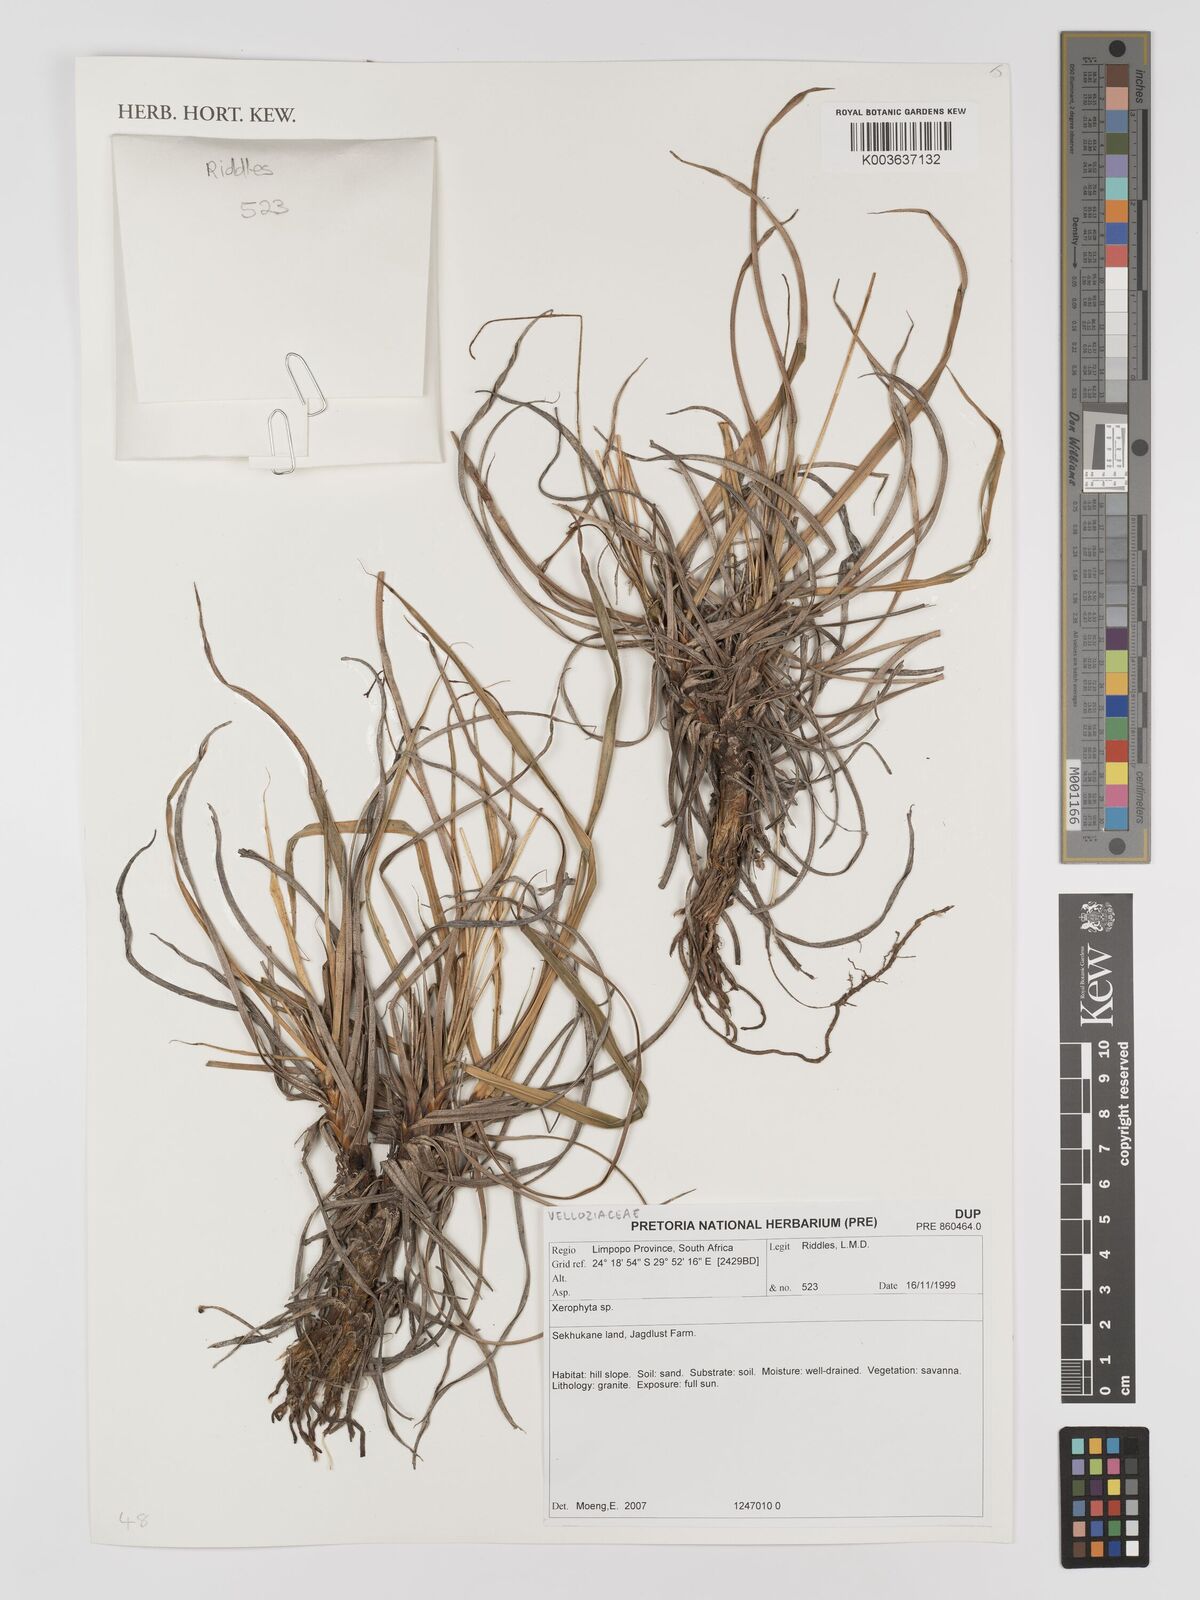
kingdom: Plantae
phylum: Tracheophyta
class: Liliopsida
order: Pandanales
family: Velloziaceae
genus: Xerophyta
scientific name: Xerophyta
